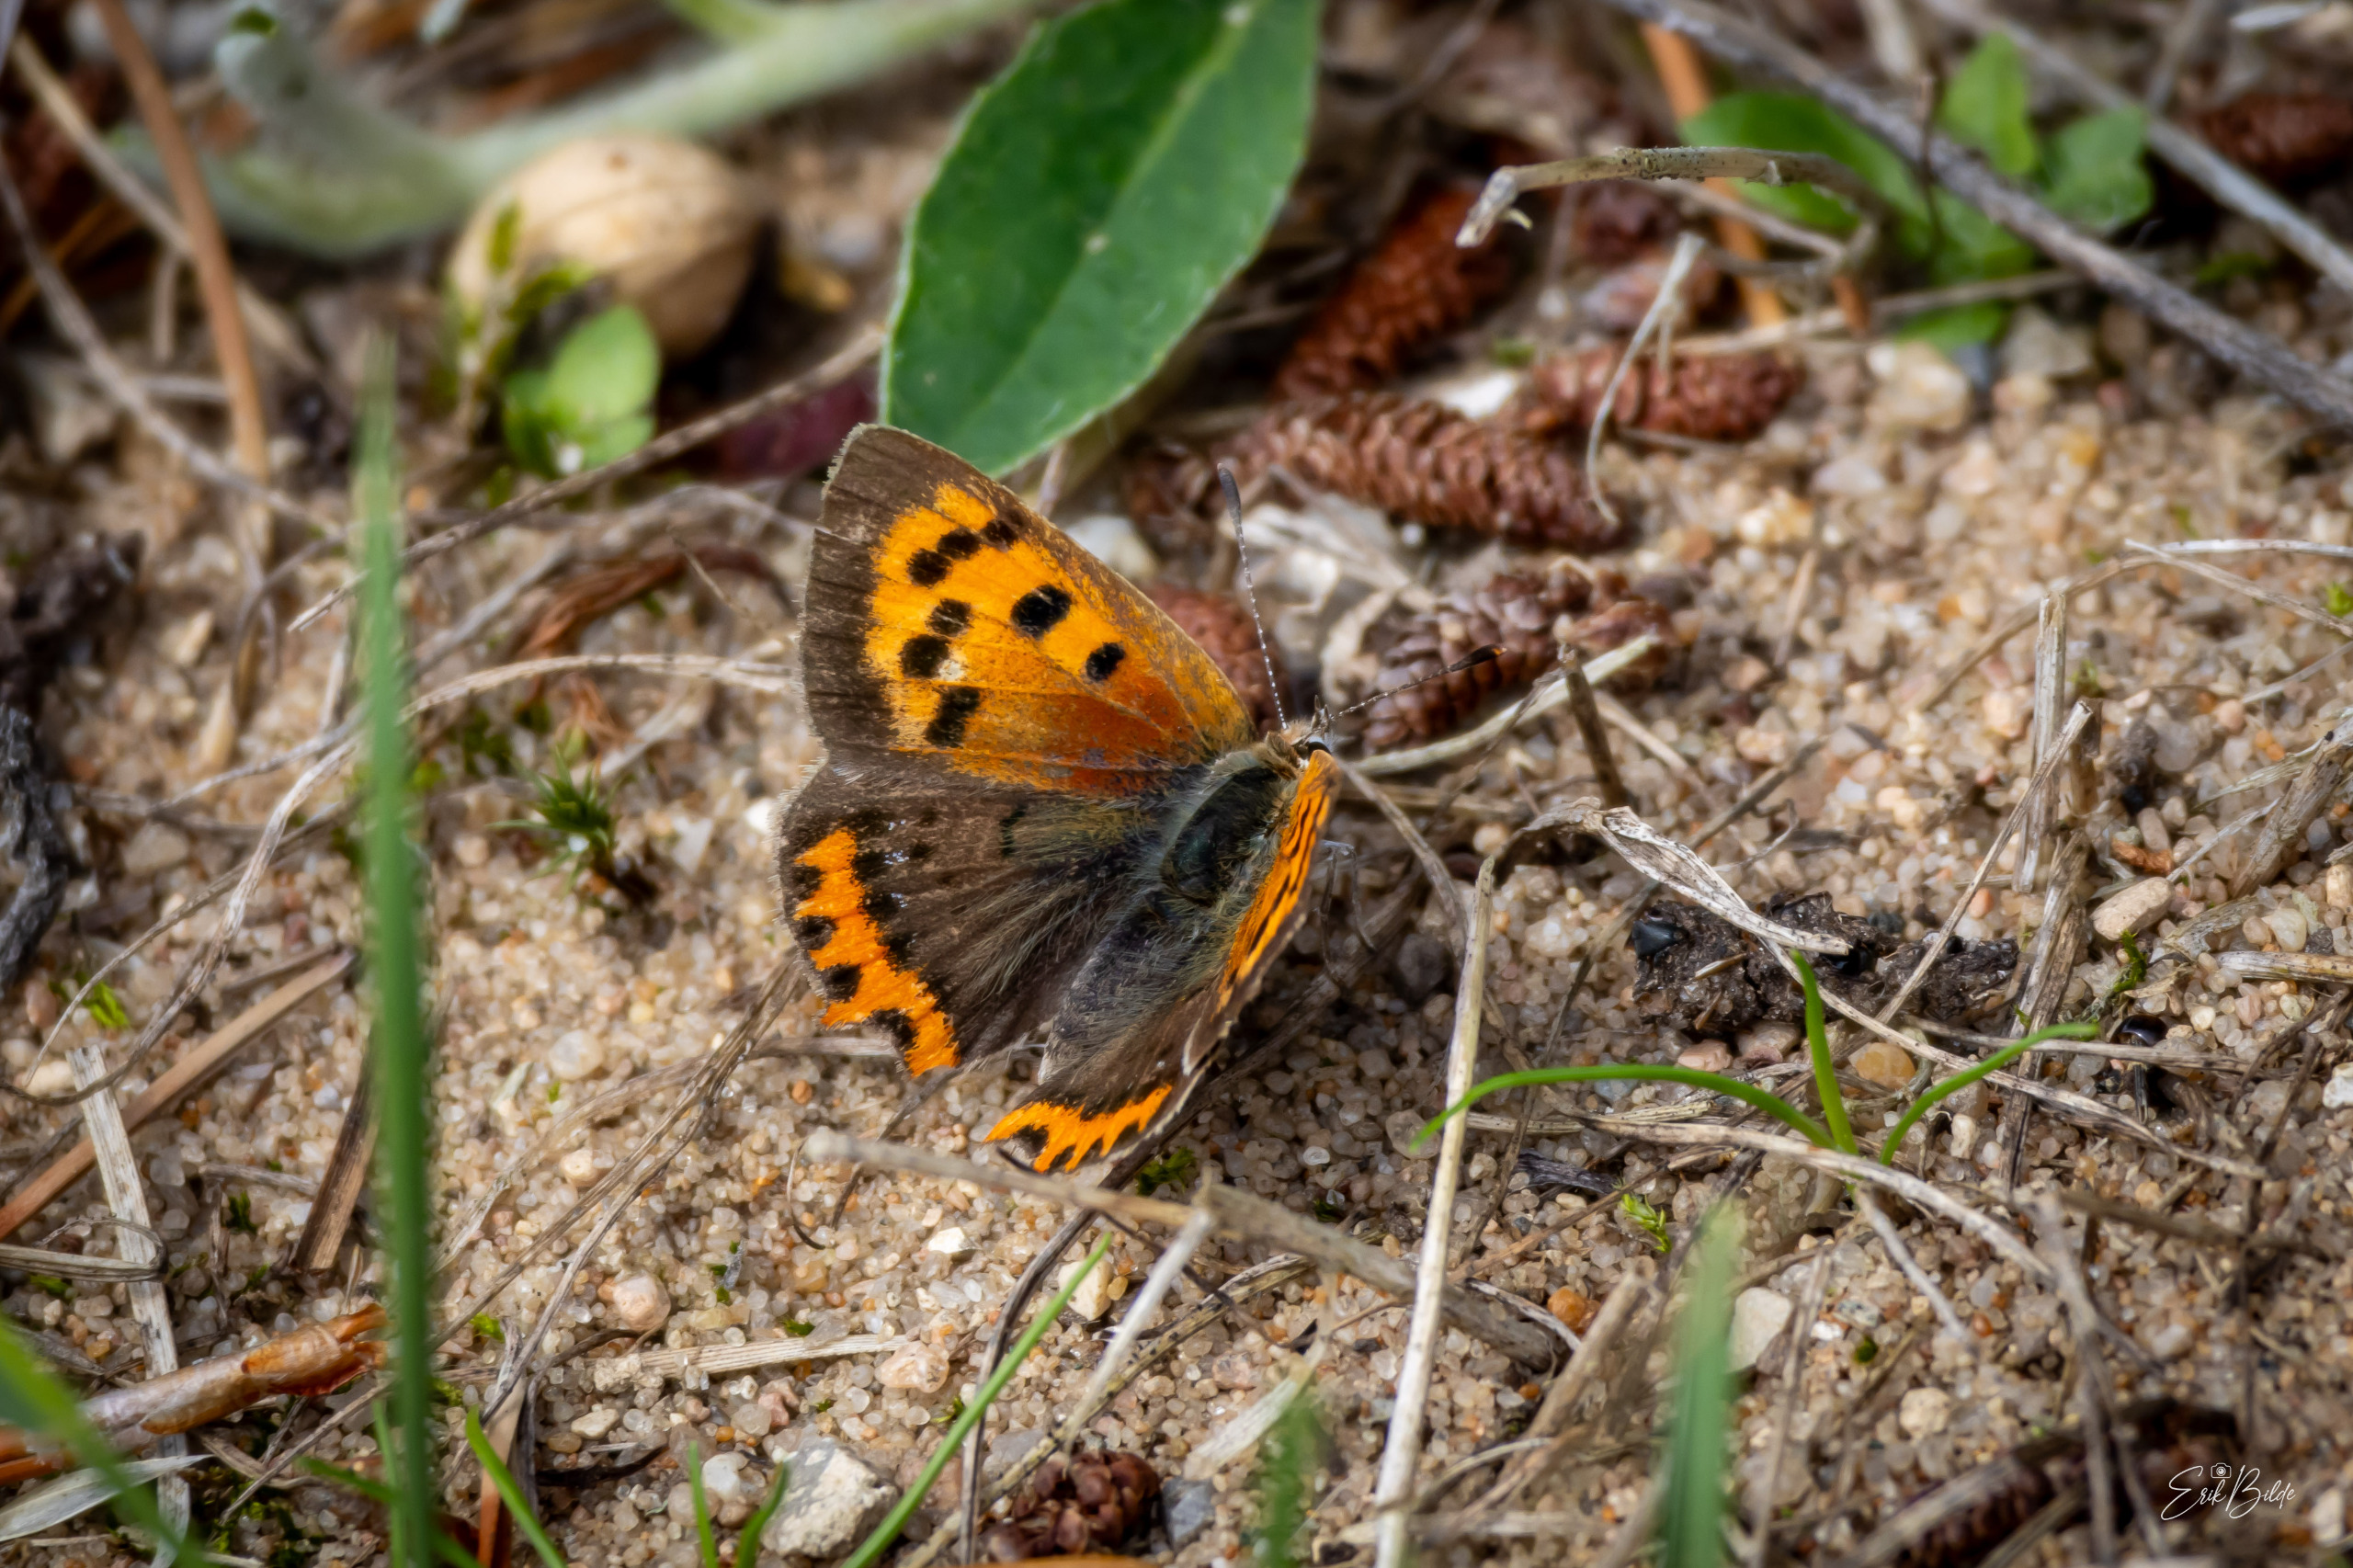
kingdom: Animalia
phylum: Arthropoda
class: Insecta
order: Lepidoptera
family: Lycaenidae
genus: Lycaena
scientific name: Lycaena phlaeas
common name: Lille ildfugl
